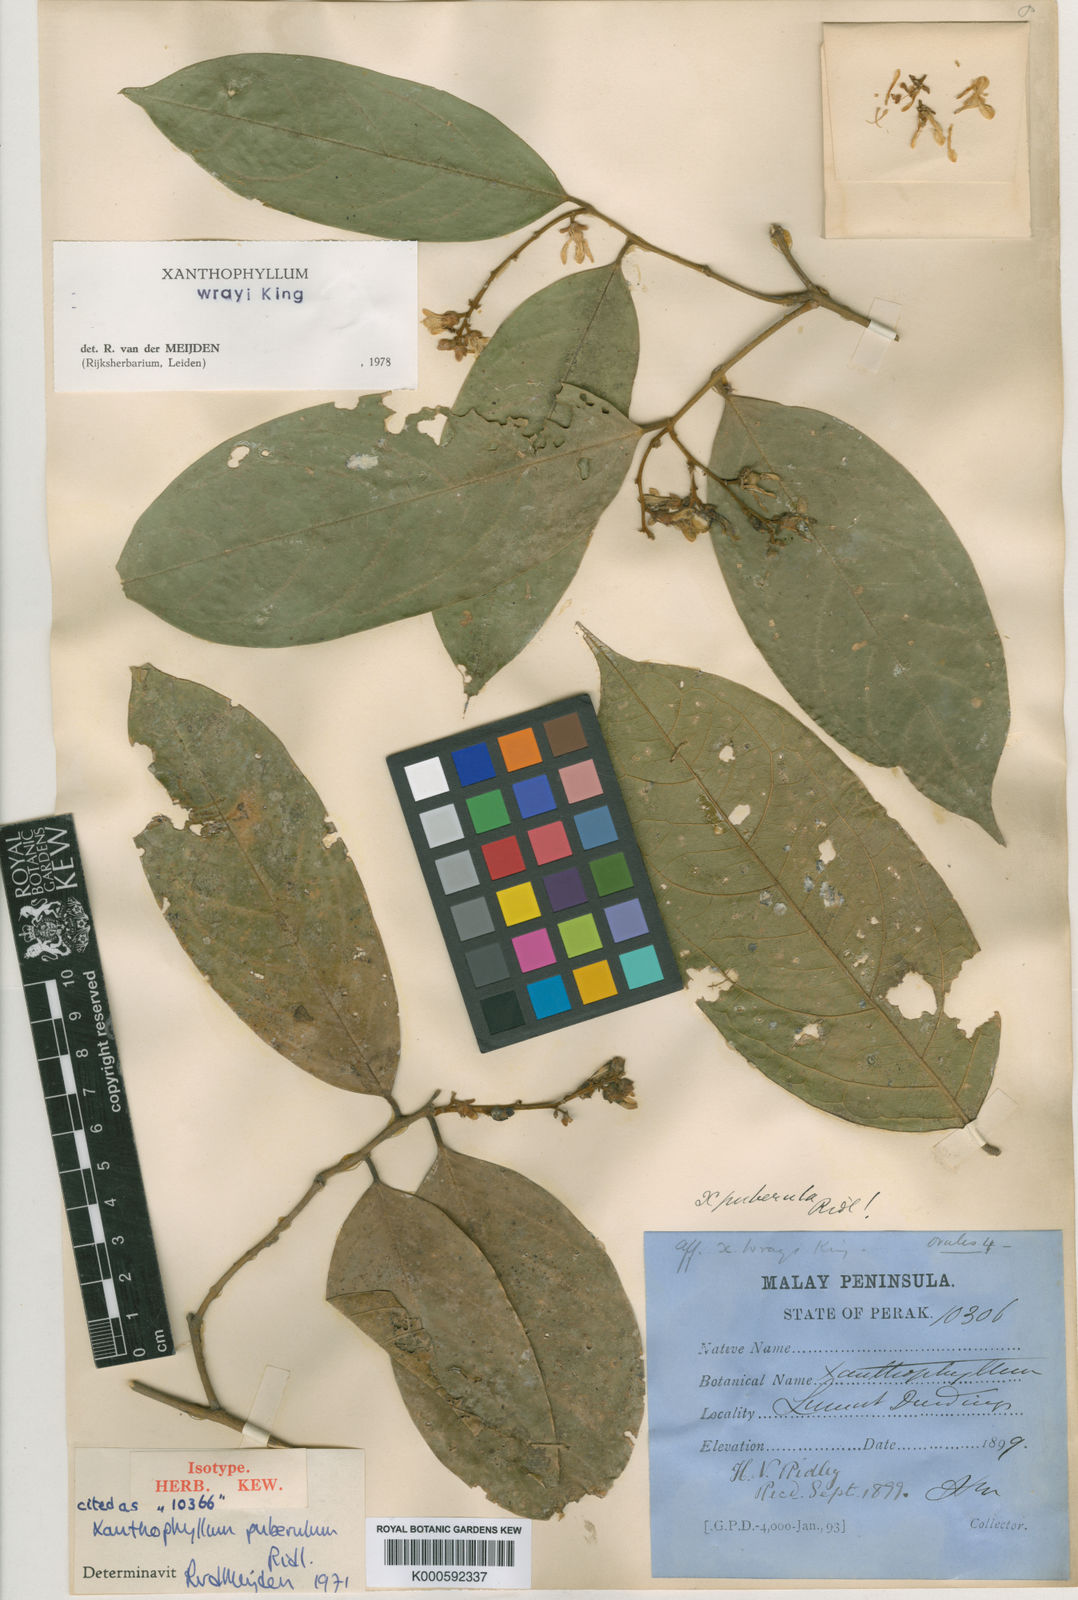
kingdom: Plantae
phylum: Tracheophyta
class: Magnoliopsida
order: Fabales
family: Polygalaceae
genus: Xanthophyllum
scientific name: Xanthophyllum wrayi
